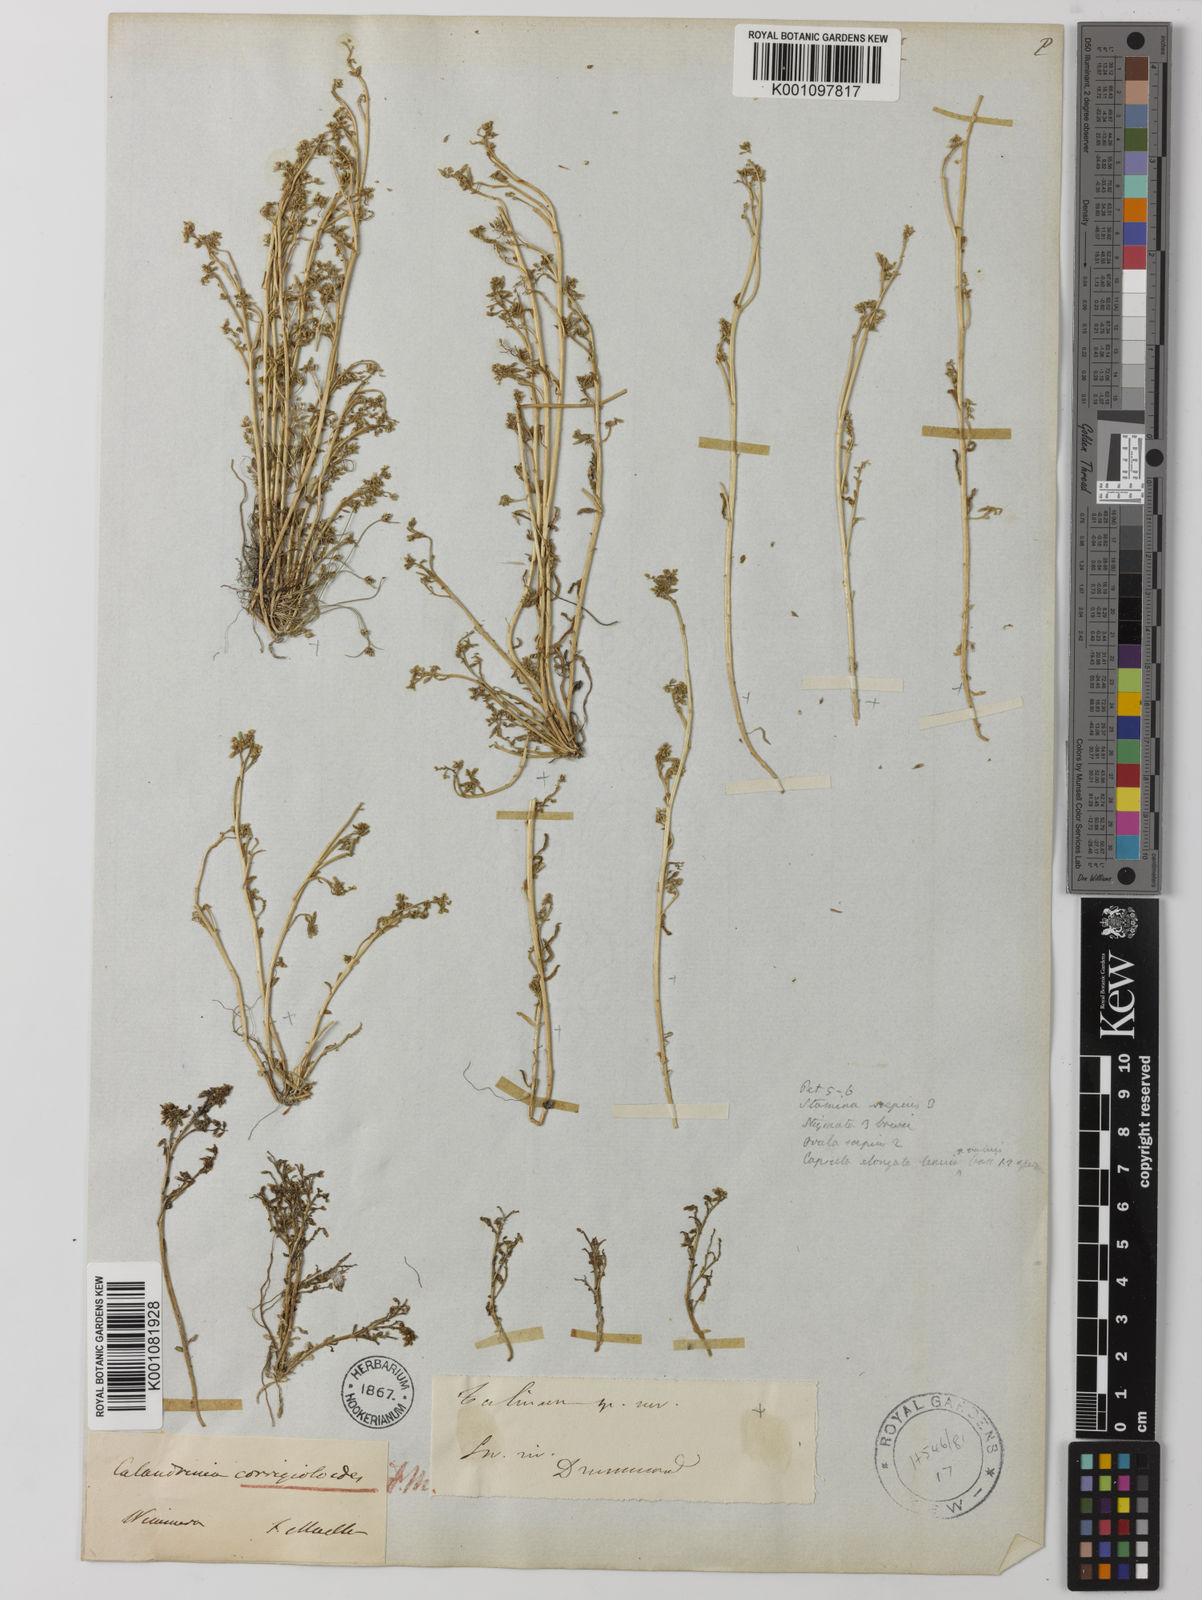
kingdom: Plantae
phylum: Tracheophyta
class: Magnoliopsida
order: Caryophyllales
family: Montiaceae
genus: Rumicastrum
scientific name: Rumicastrum corrigioloides
